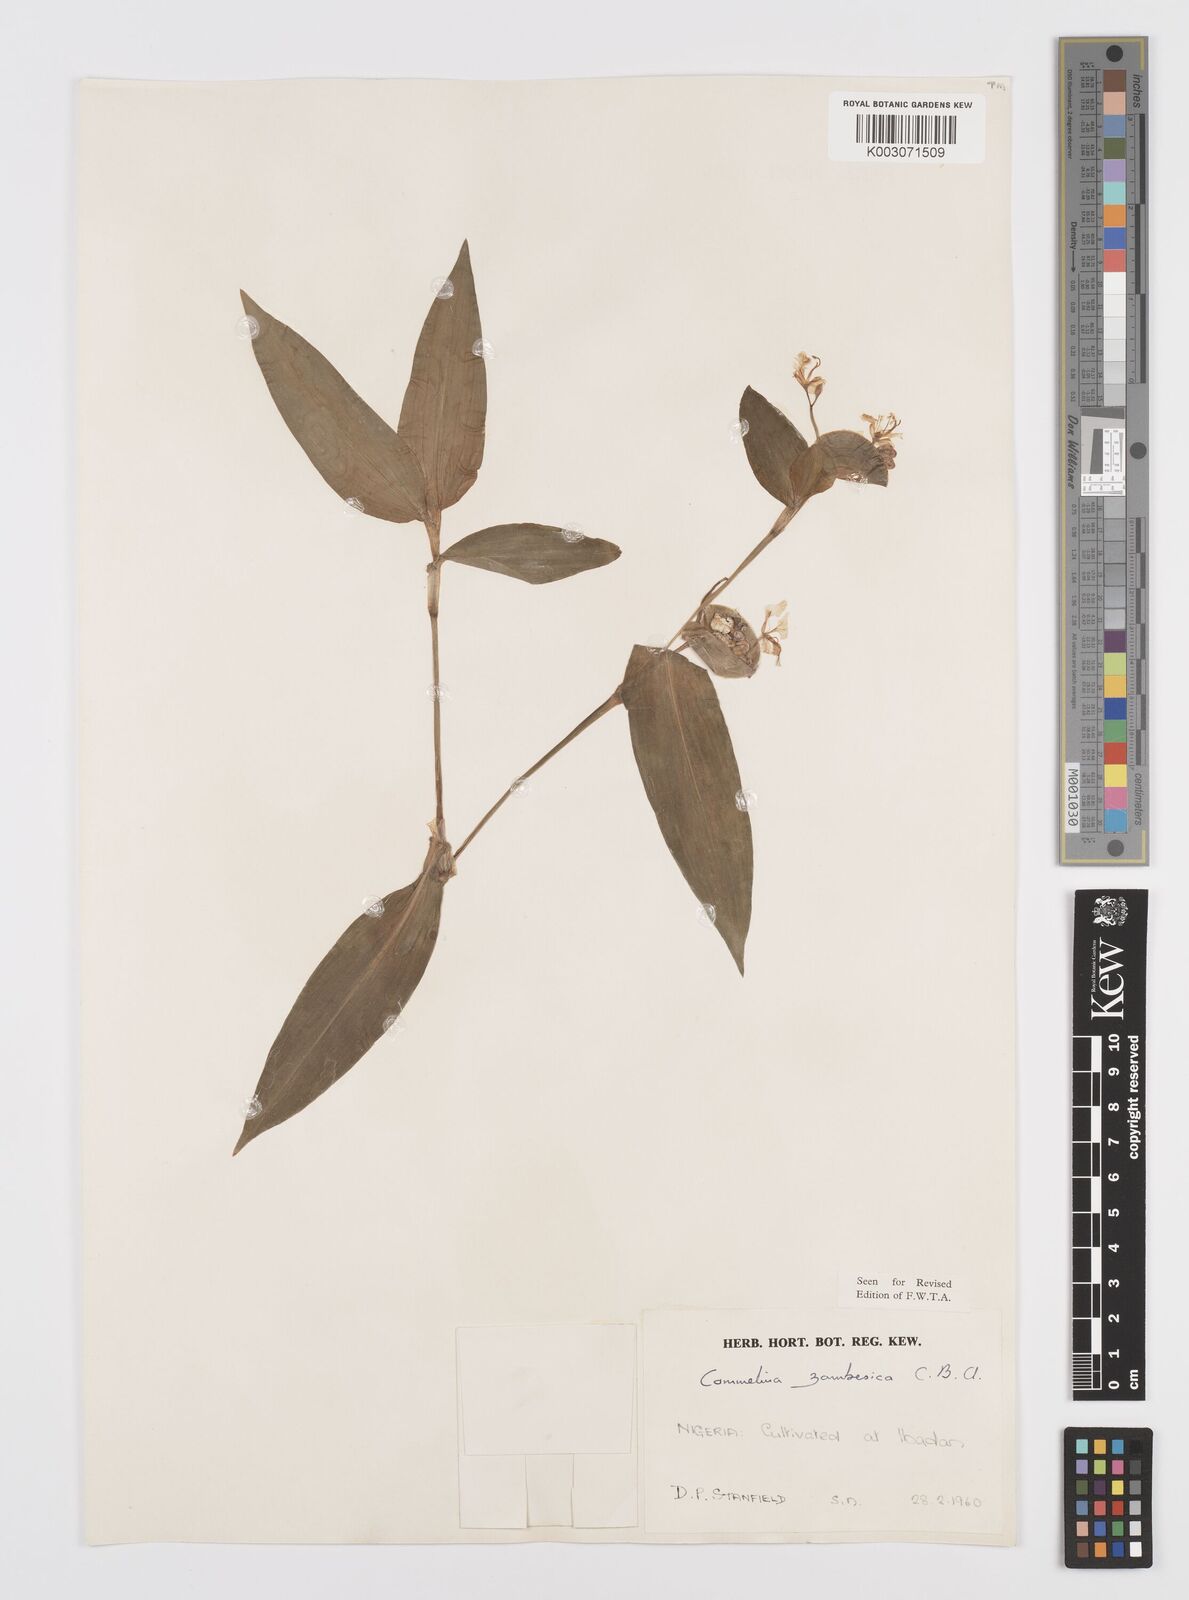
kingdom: Plantae
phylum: Tracheophyta
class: Liliopsida
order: Commelinales
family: Commelinaceae
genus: Commelina
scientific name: Commelina zambesica
